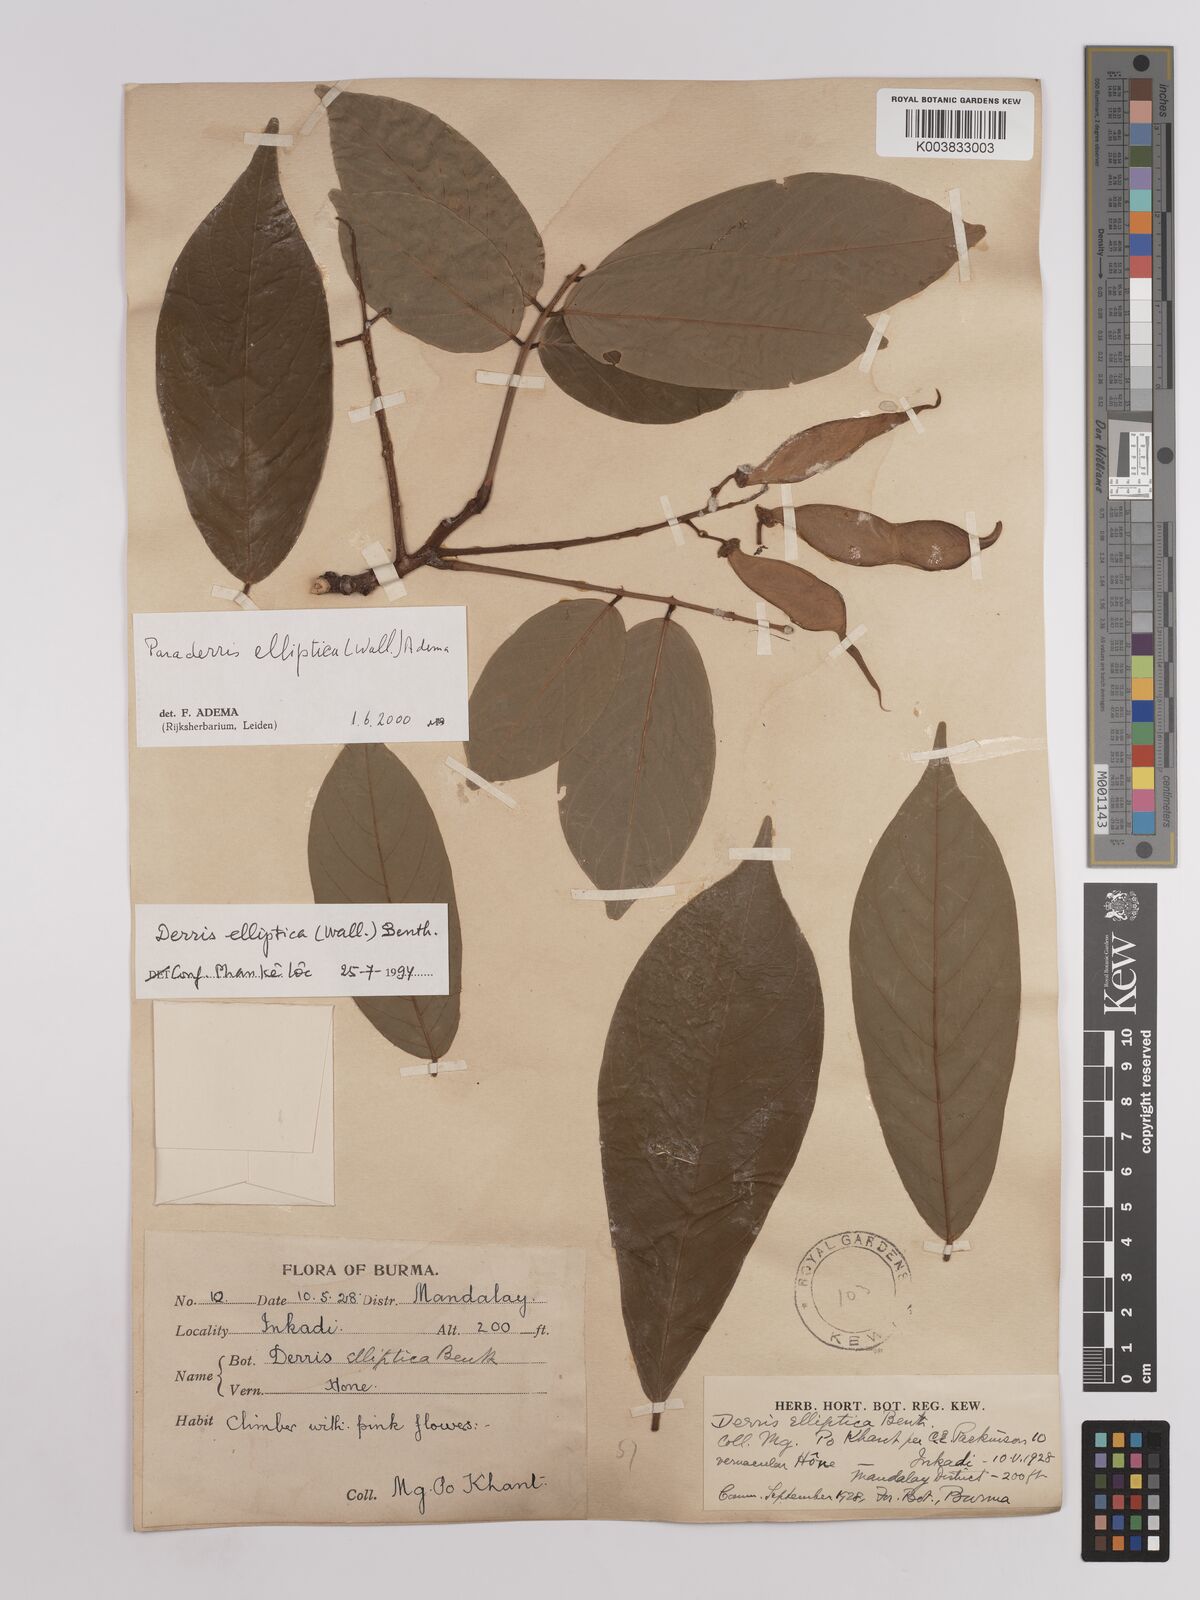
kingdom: Plantae
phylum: Tracheophyta
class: Magnoliopsida
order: Fabales
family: Fabaceae
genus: Derris
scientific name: Derris elliptica
